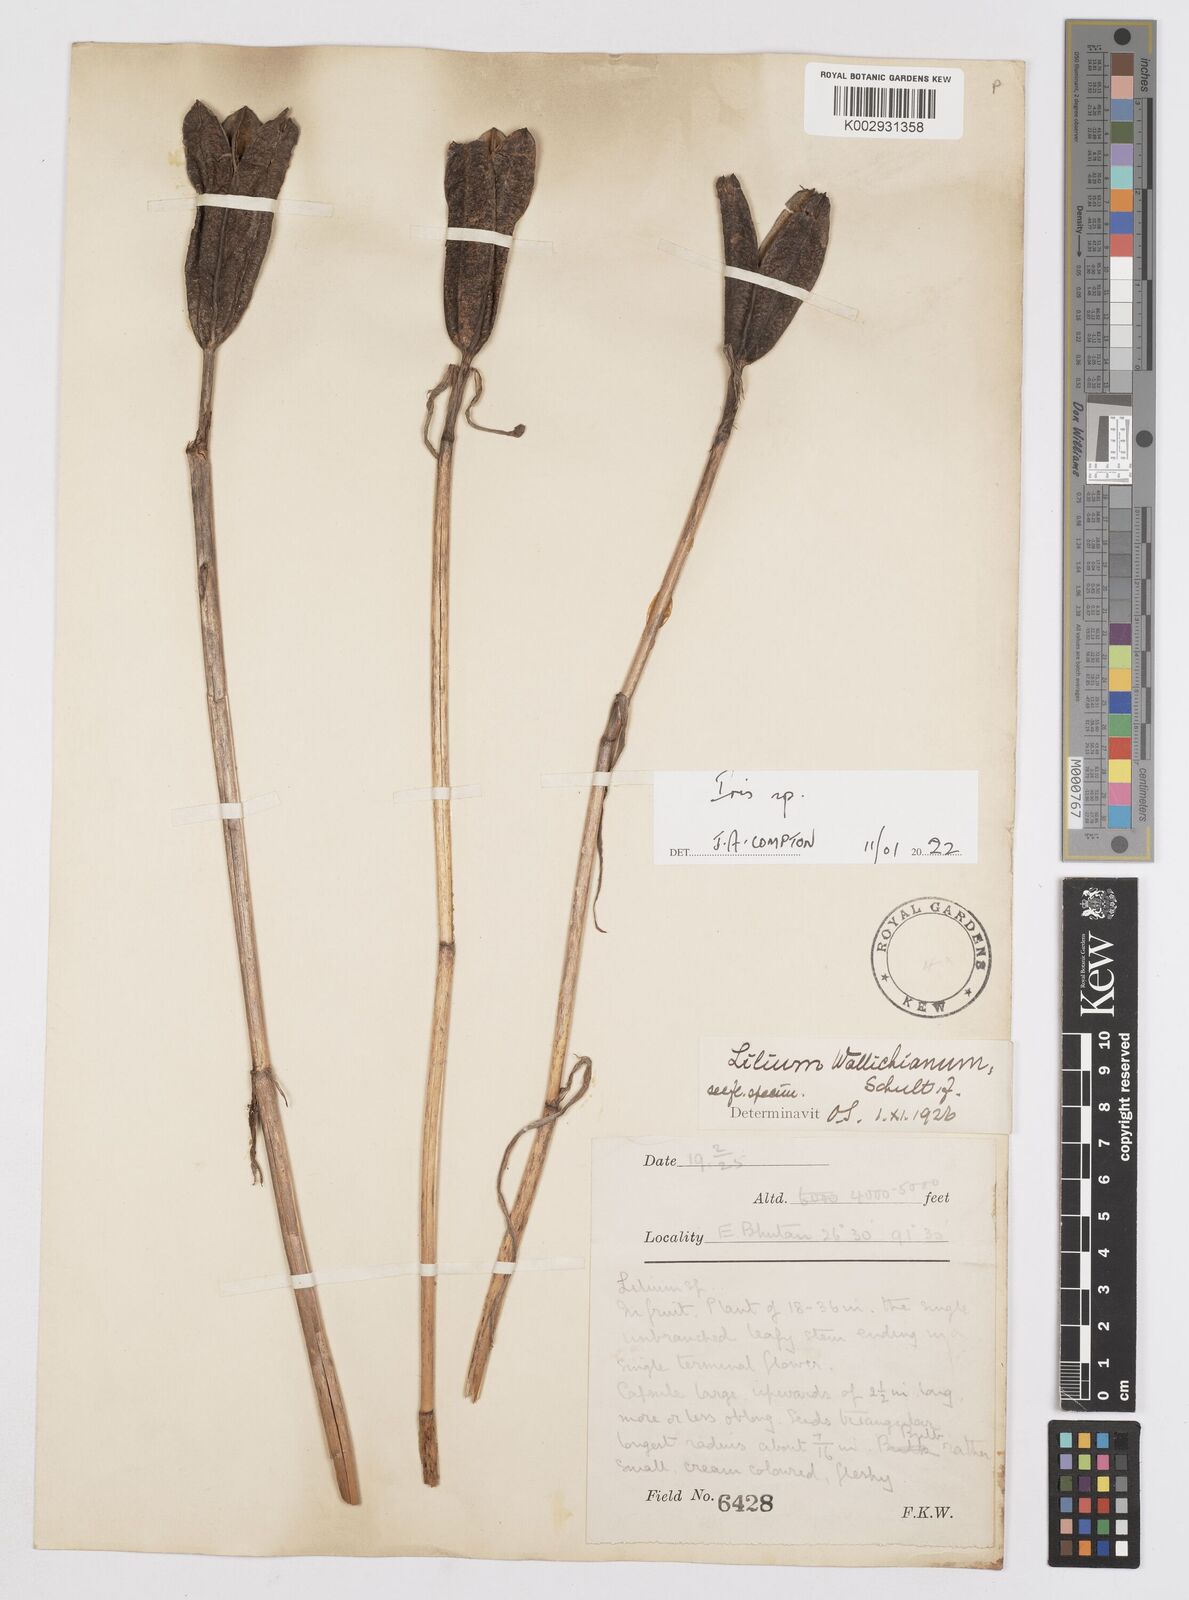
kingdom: Plantae
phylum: Tracheophyta
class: Liliopsida
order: Asparagales
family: Iridaceae
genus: Iris
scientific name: Iris
